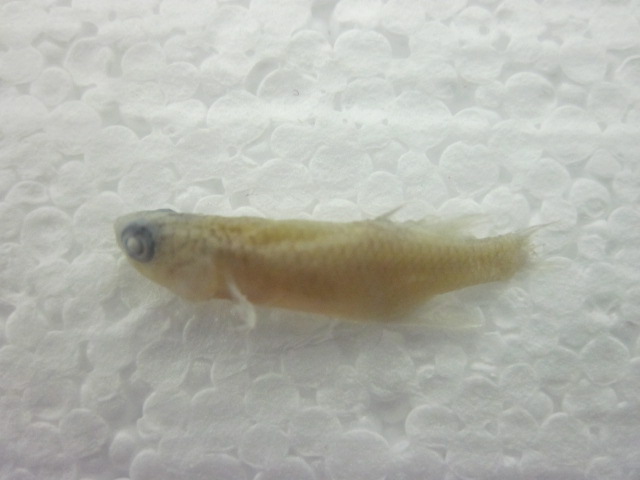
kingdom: Animalia
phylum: Chordata
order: Cyprinodontiformes
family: Nothobranchiidae
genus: Nothobranchius
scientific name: Nothobranchius niassa
